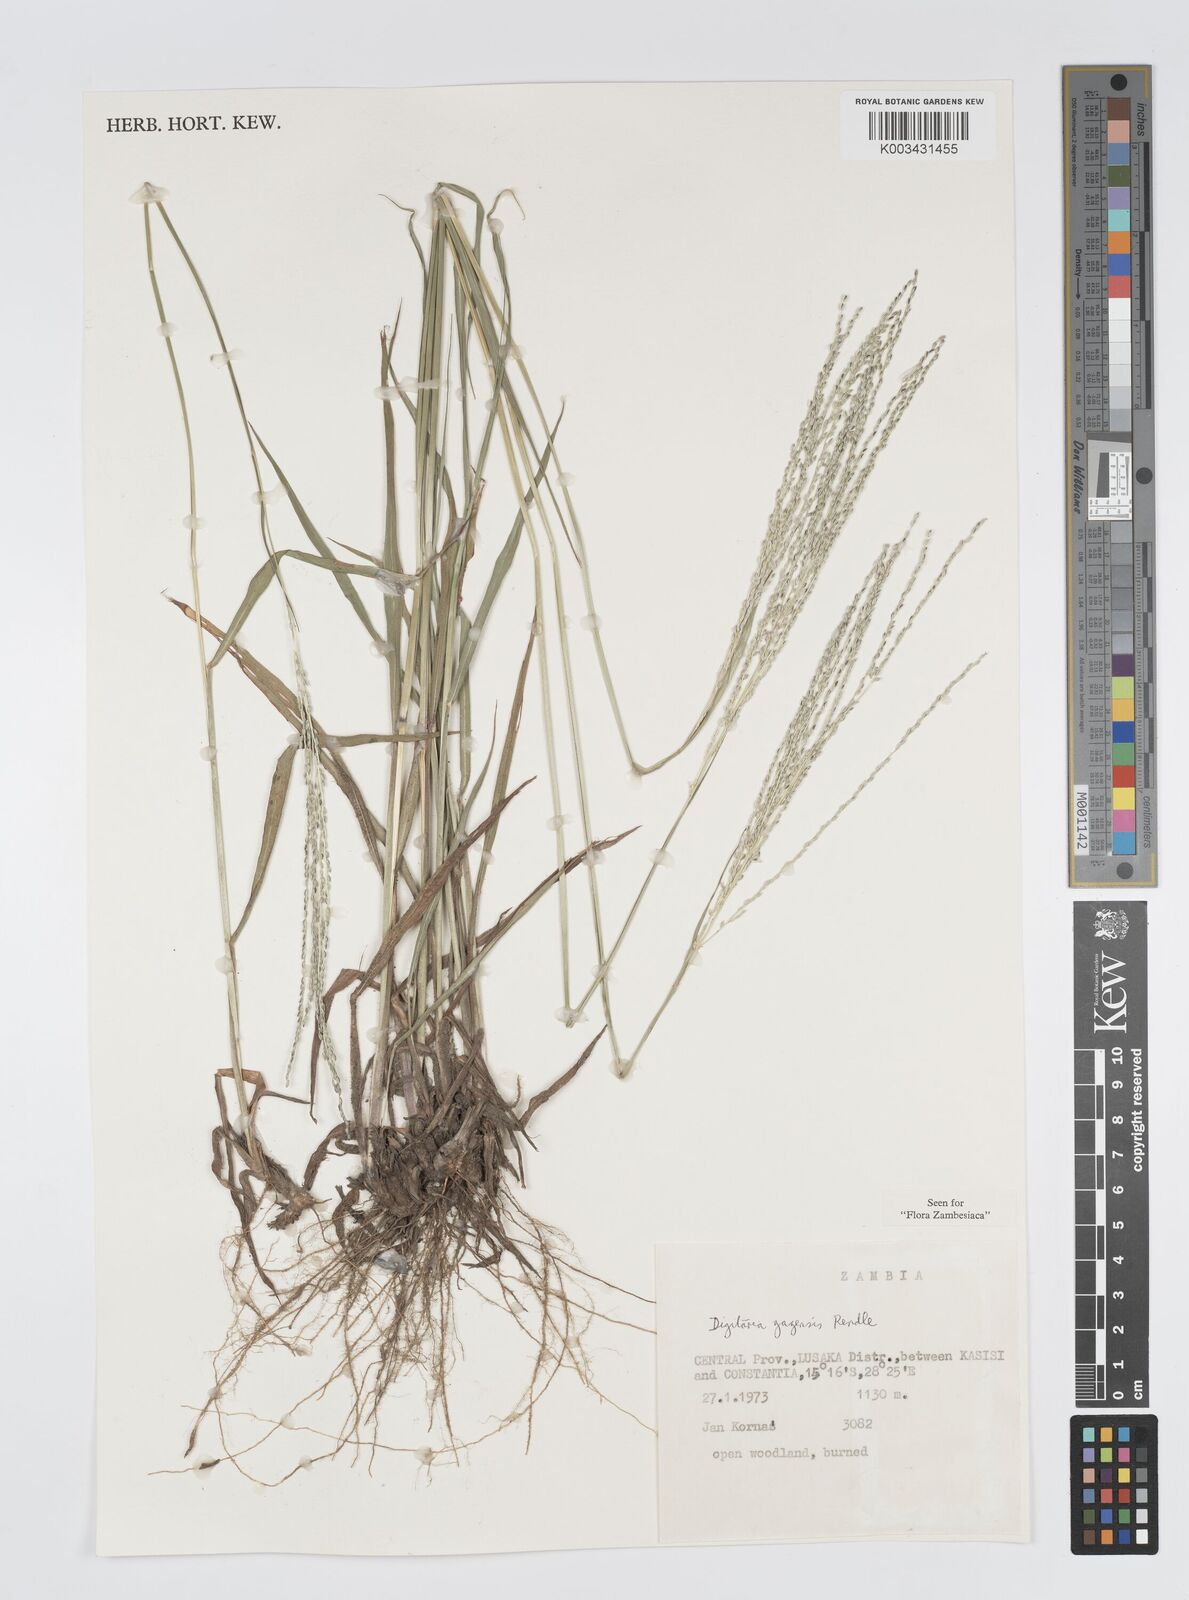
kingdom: Plantae
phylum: Tracheophyta
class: Liliopsida
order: Poales
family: Poaceae
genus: Digitaria
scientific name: Digitaria gazensis
